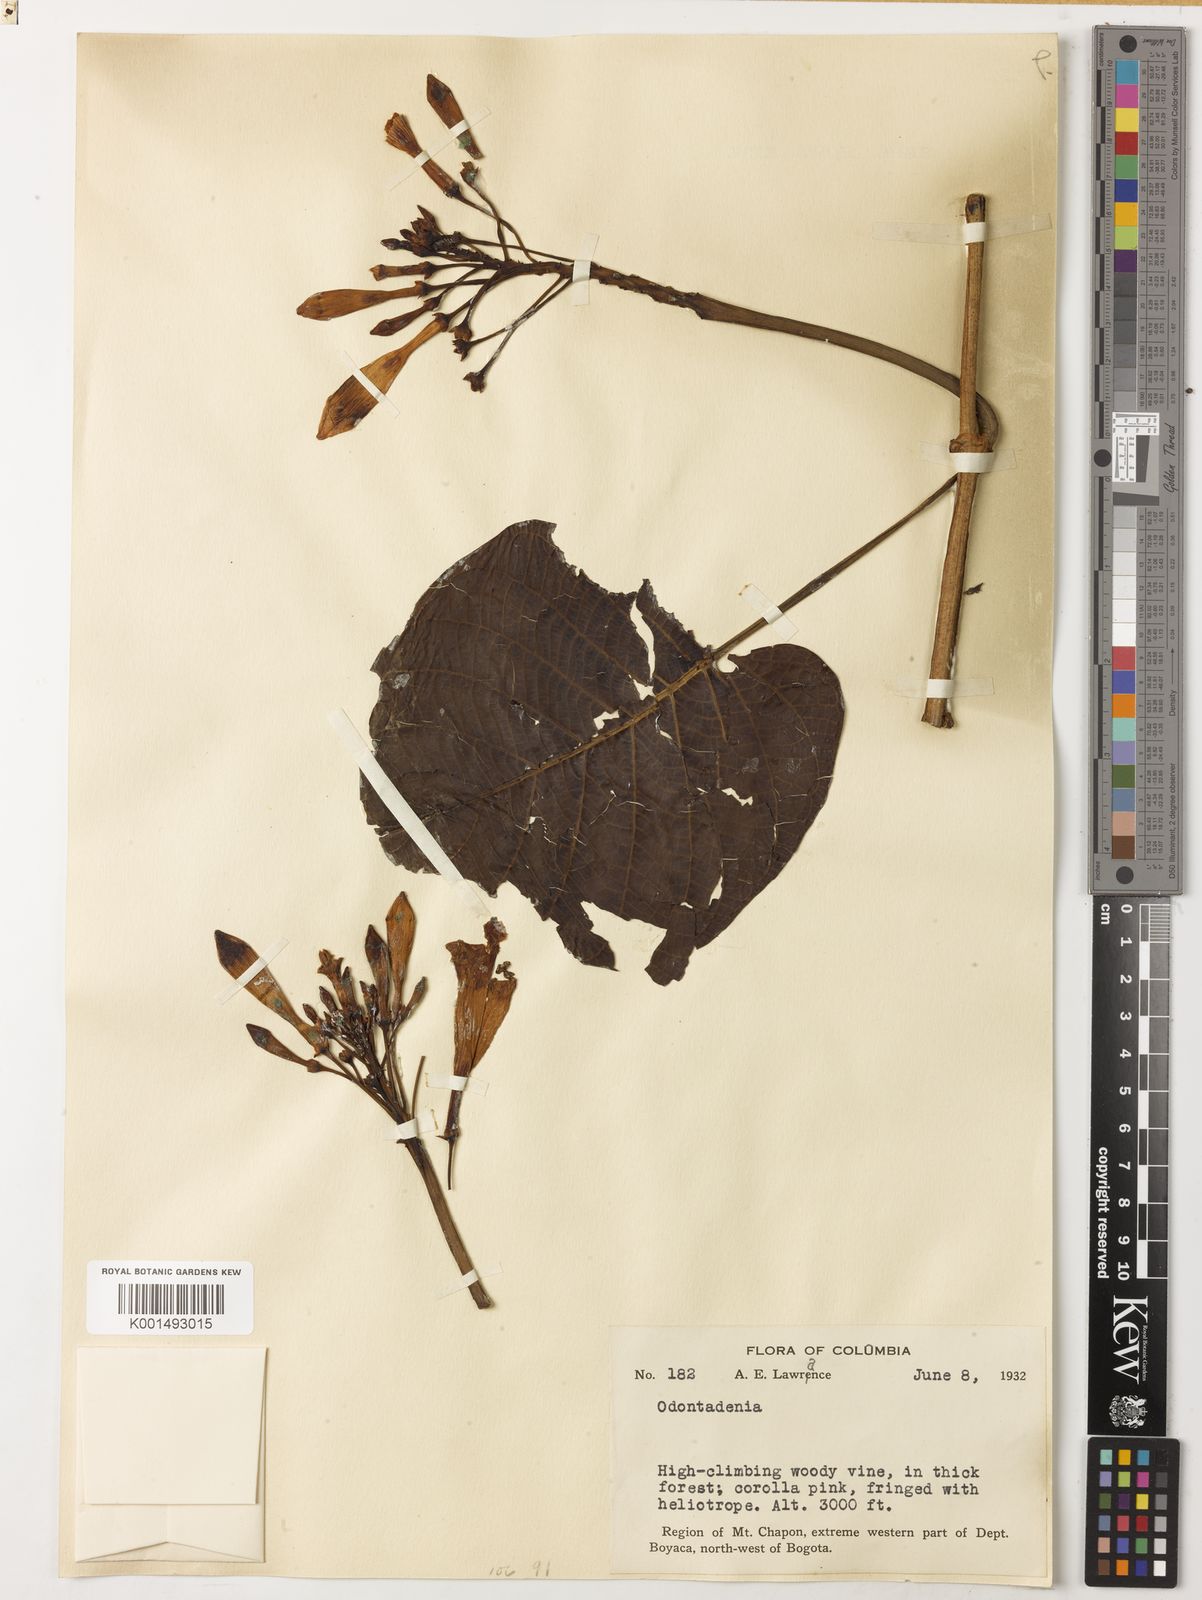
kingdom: Plantae
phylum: Tracheophyta
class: Magnoliopsida
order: Gentianales
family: Apocynaceae
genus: Odontadenia
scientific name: Odontadenia semidigyna
